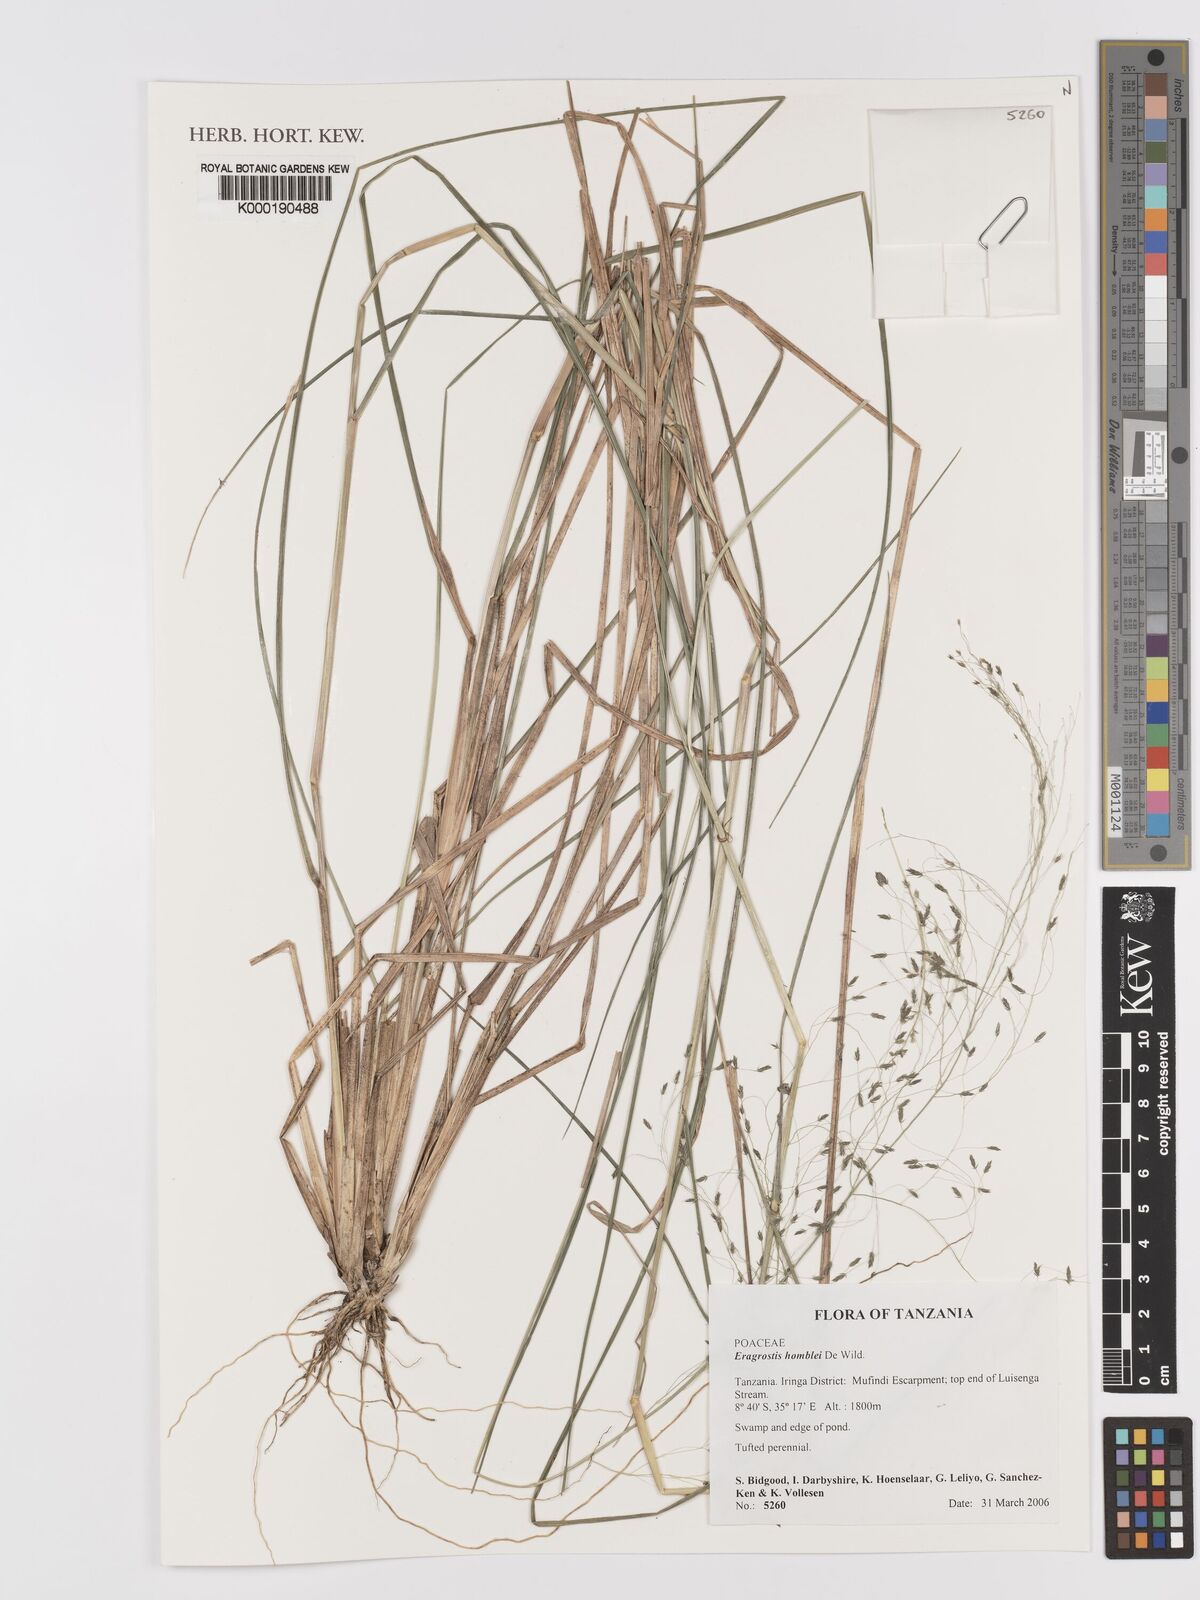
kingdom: Plantae
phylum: Tracheophyta
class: Liliopsida
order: Poales
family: Poaceae
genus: Eragrostis
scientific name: Eragrostis homblei
